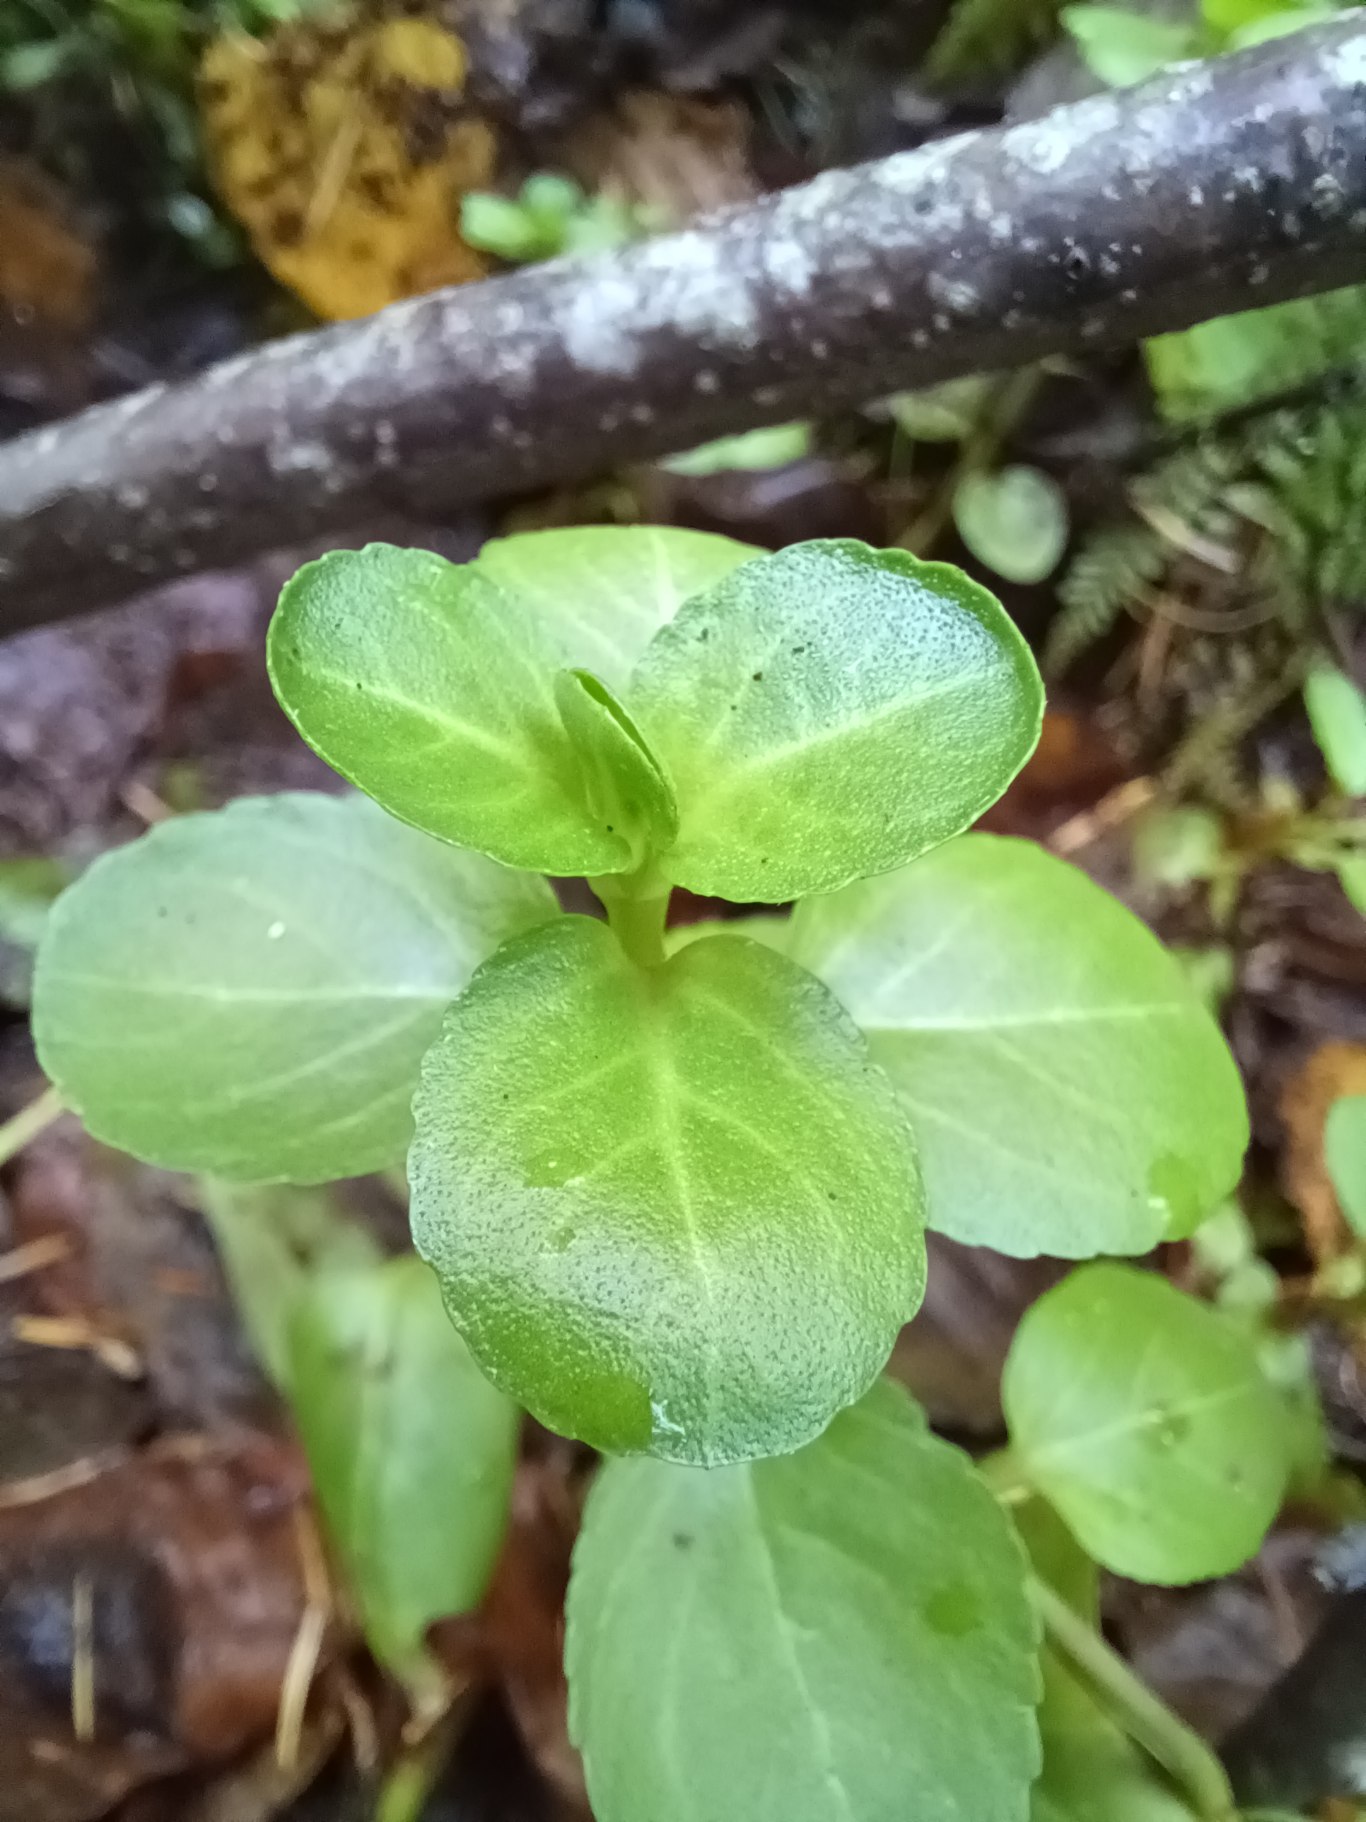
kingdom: Plantae
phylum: Tracheophyta
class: Magnoliopsida
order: Lamiales
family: Plantaginaceae
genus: Veronica
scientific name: Veronica beccabunga
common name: Tykbladet ærenpris
